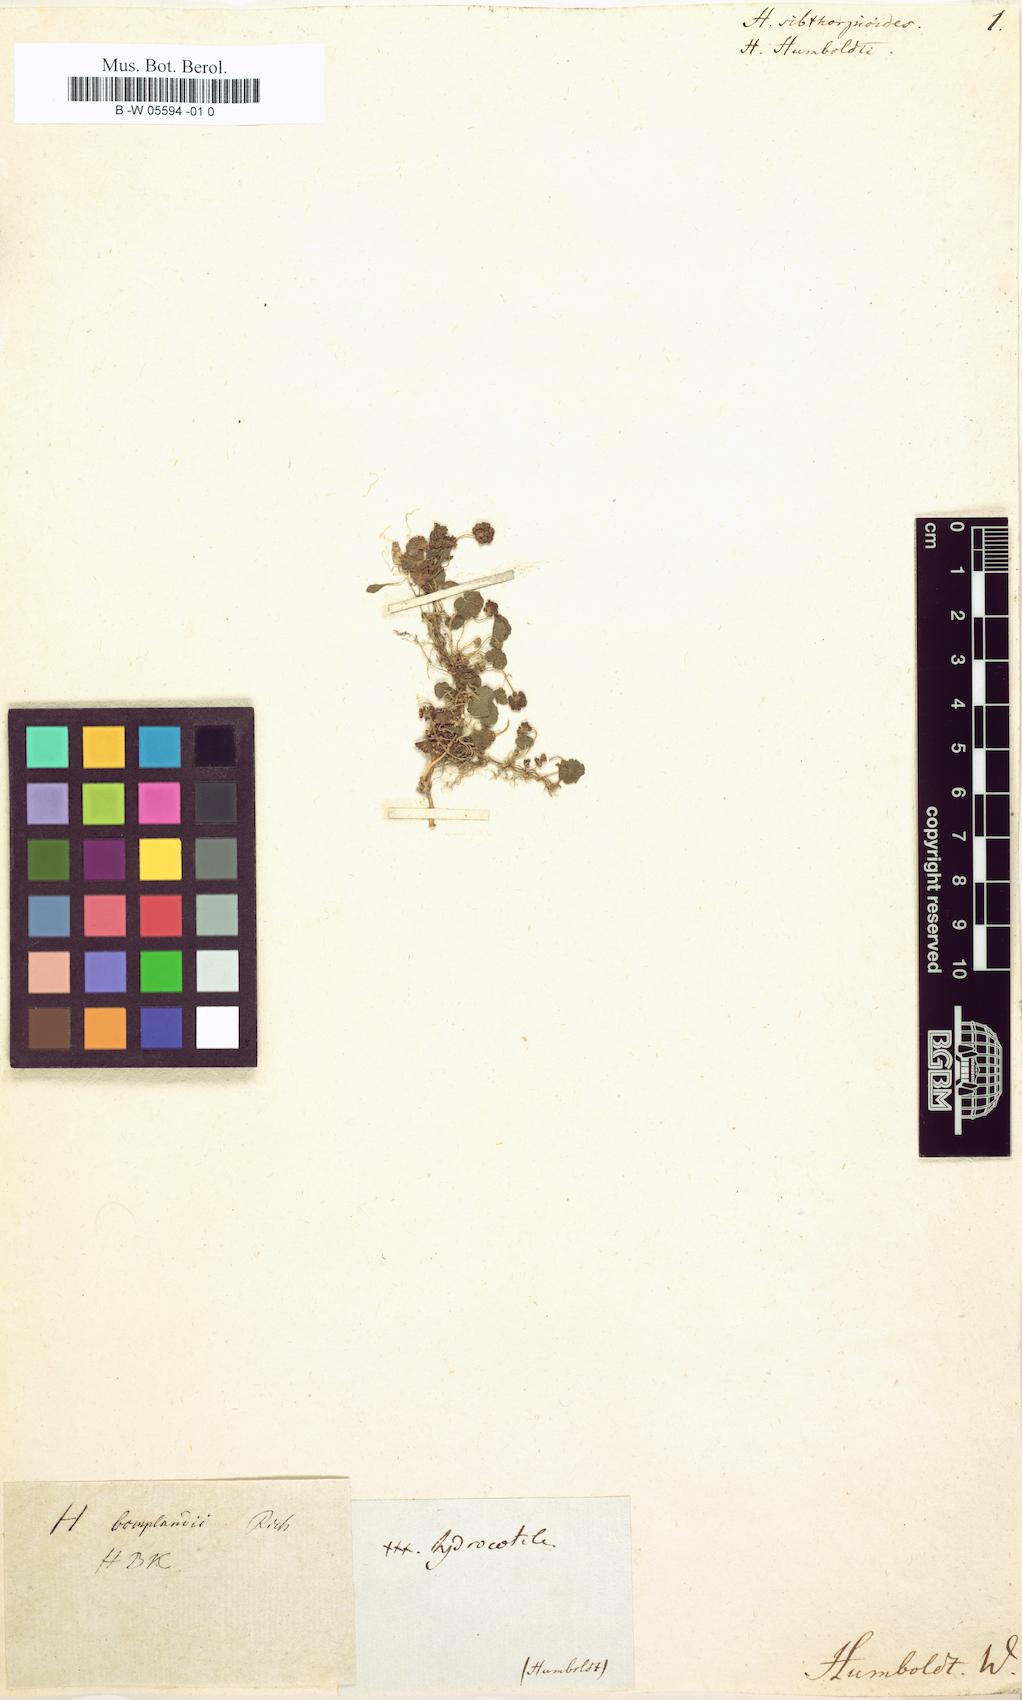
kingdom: Plantae
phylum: Tracheophyta
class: Magnoliopsida
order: Apiales
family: Araliaceae
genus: Hydrocotyle
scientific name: Hydrocotyle bonplandii
